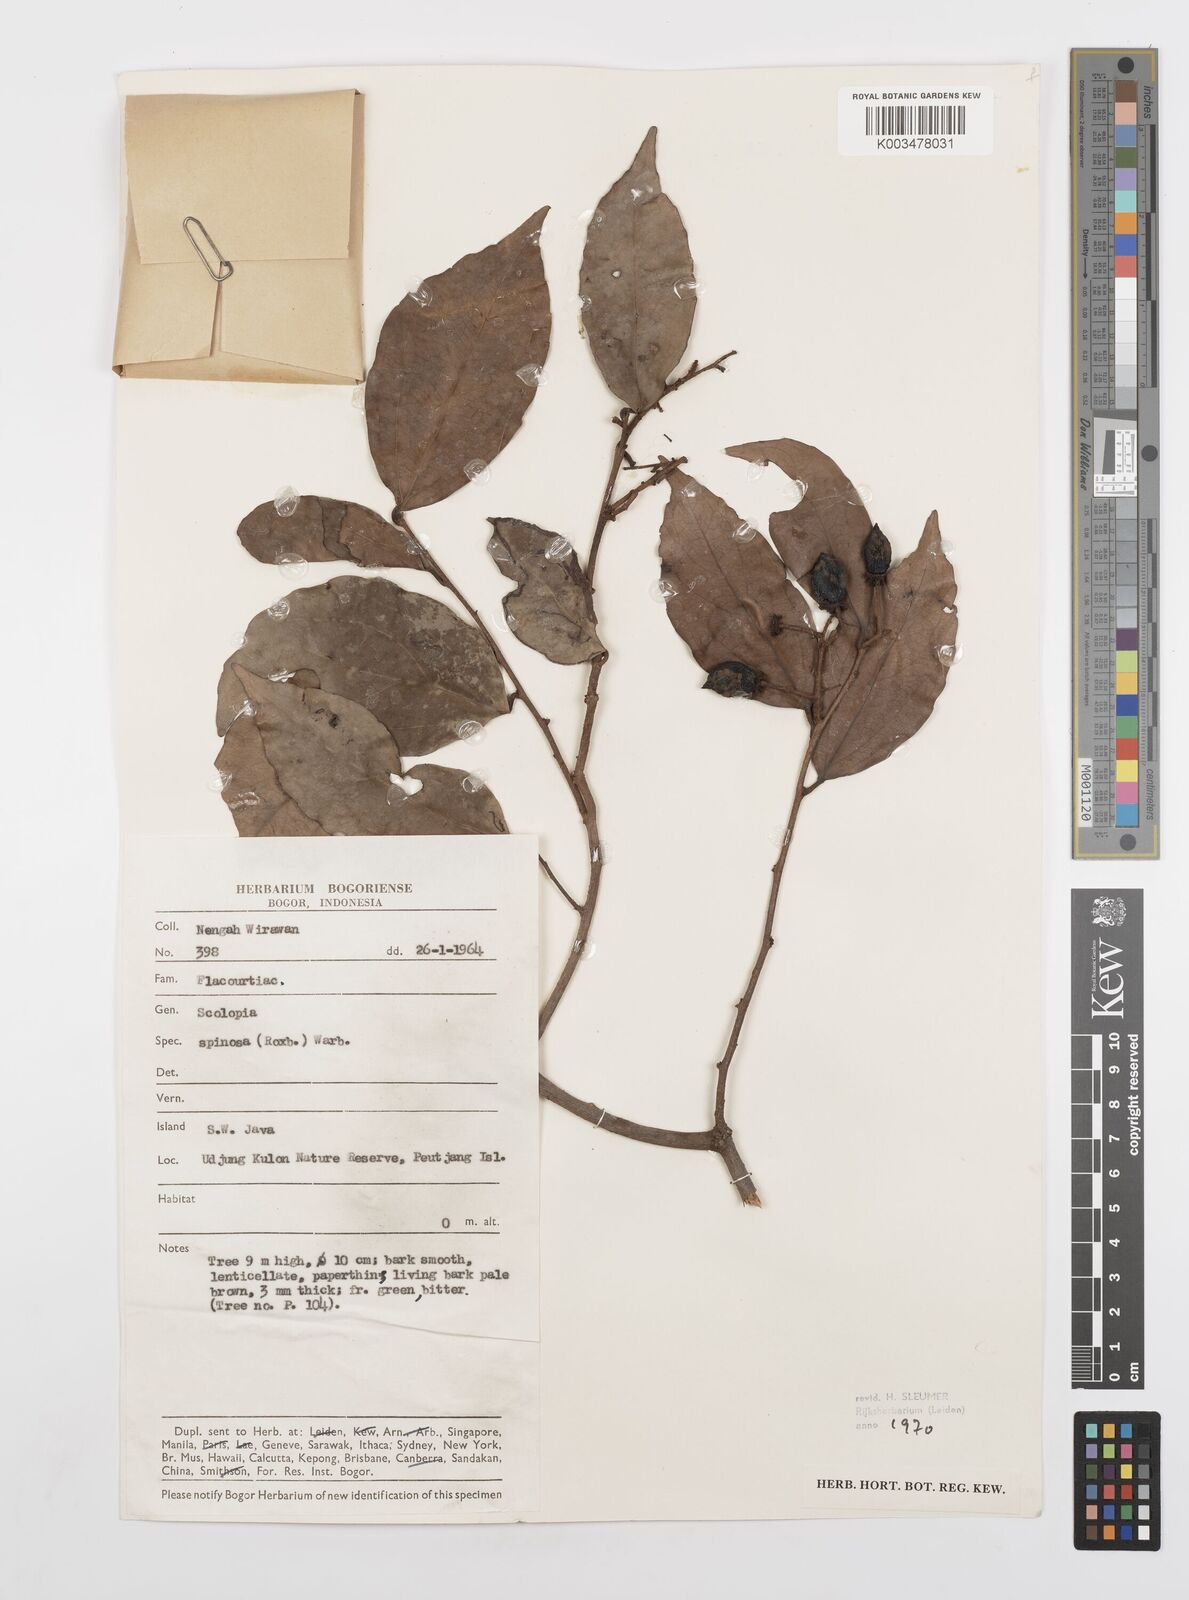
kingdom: Plantae
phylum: Tracheophyta
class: Magnoliopsida
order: Malpighiales
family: Salicaceae
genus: Scolopia
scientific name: Scolopia spinosa
